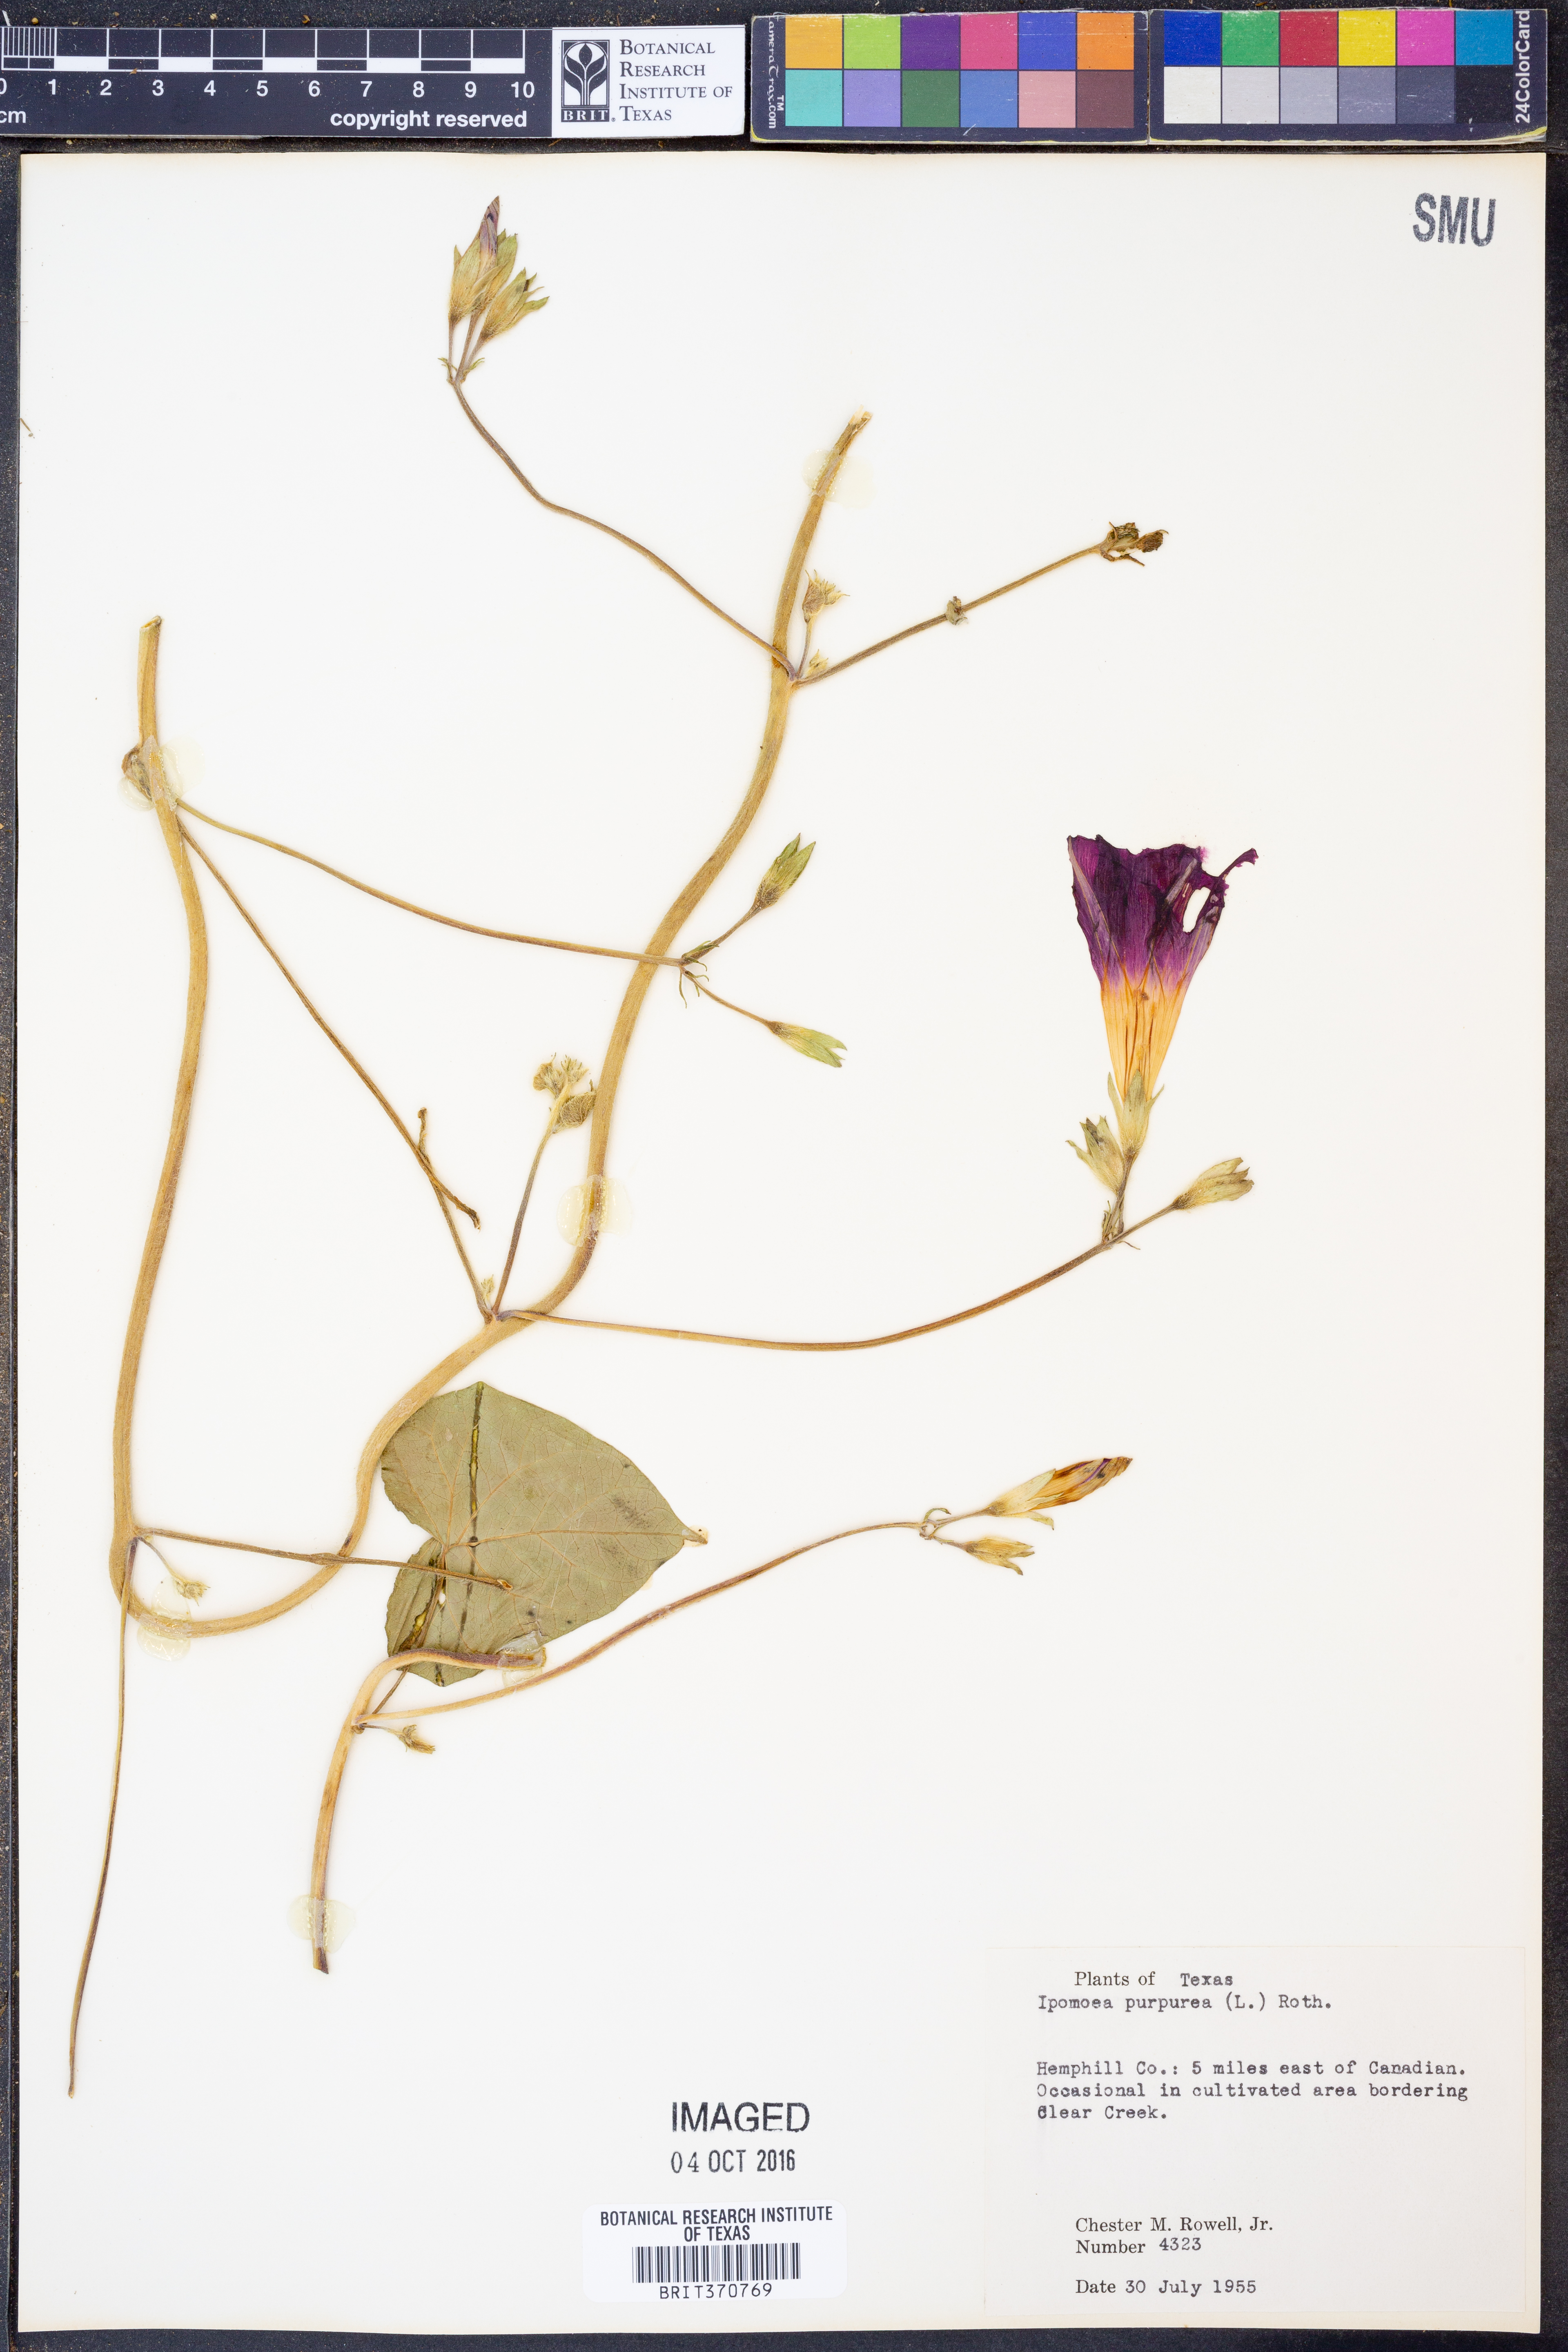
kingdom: Plantae
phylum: Tracheophyta
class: Magnoliopsida
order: Solanales
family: Convolvulaceae
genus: Ipomoea
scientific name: Ipomoea purpurea
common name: Common morning-glory
